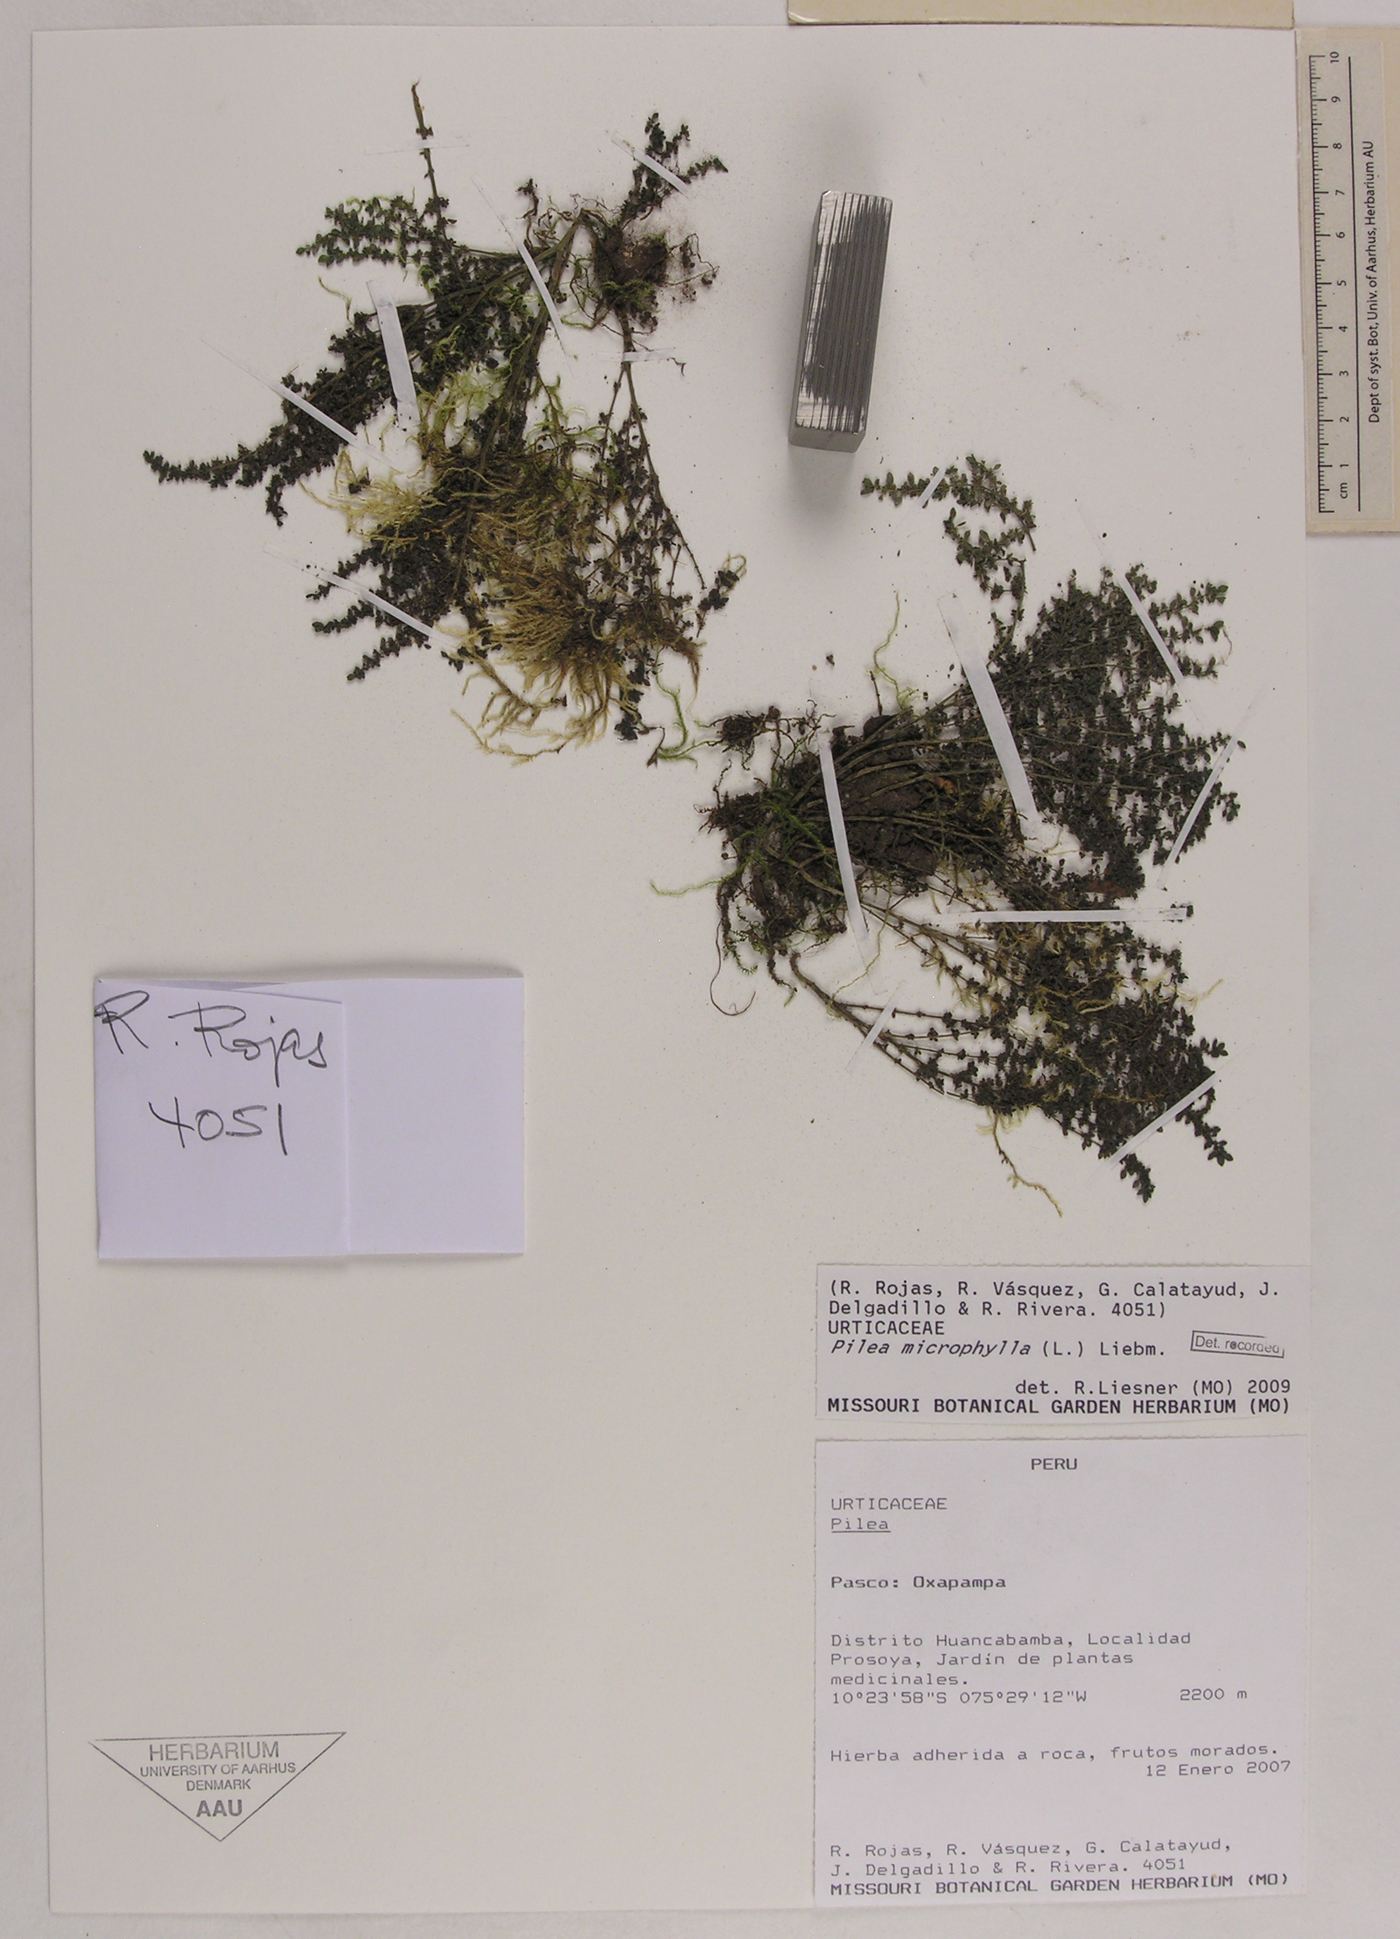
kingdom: Plantae
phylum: Tracheophyta
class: Magnoliopsida
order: Rosales
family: Urticaceae
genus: Pilea
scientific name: Pilea microphylla
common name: Artillery-plant
